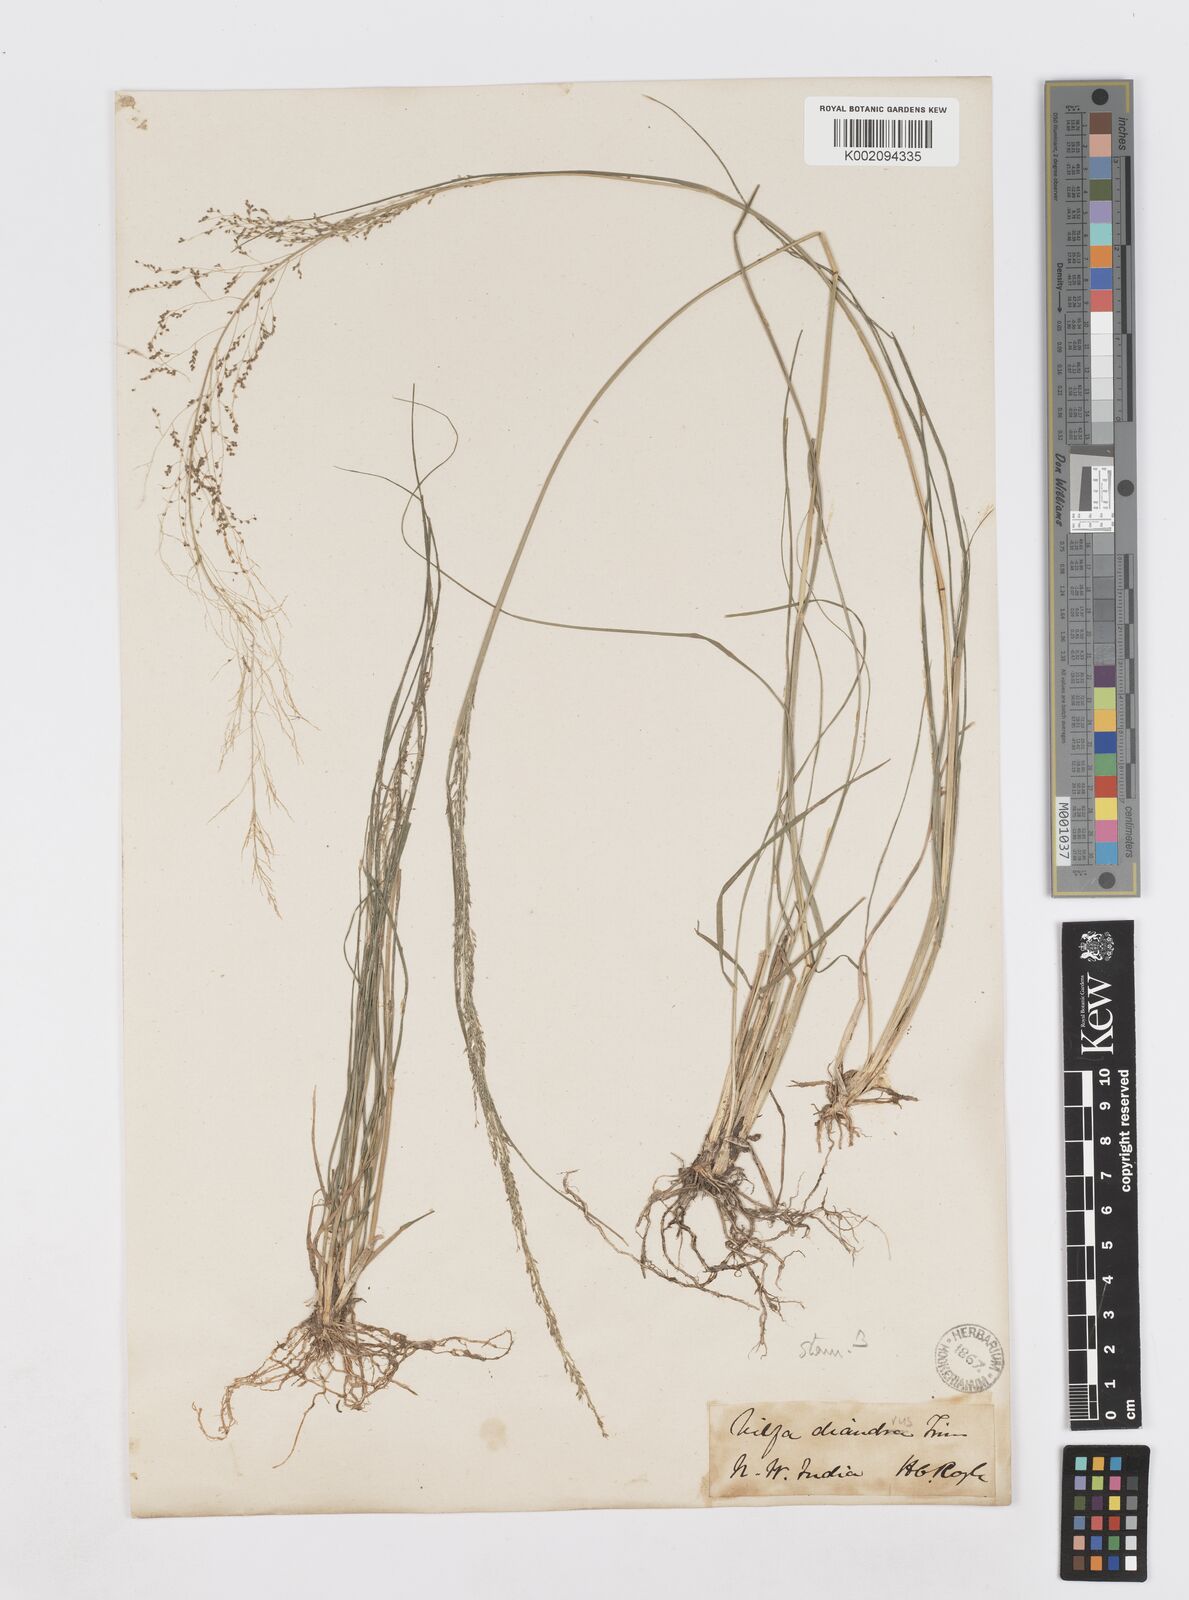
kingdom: Plantae
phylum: Tracheophyta
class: Liliopsida
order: Poales
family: Poaceae
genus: Sporobolus
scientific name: Sporobolus diandrus
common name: Tussock dropseed
